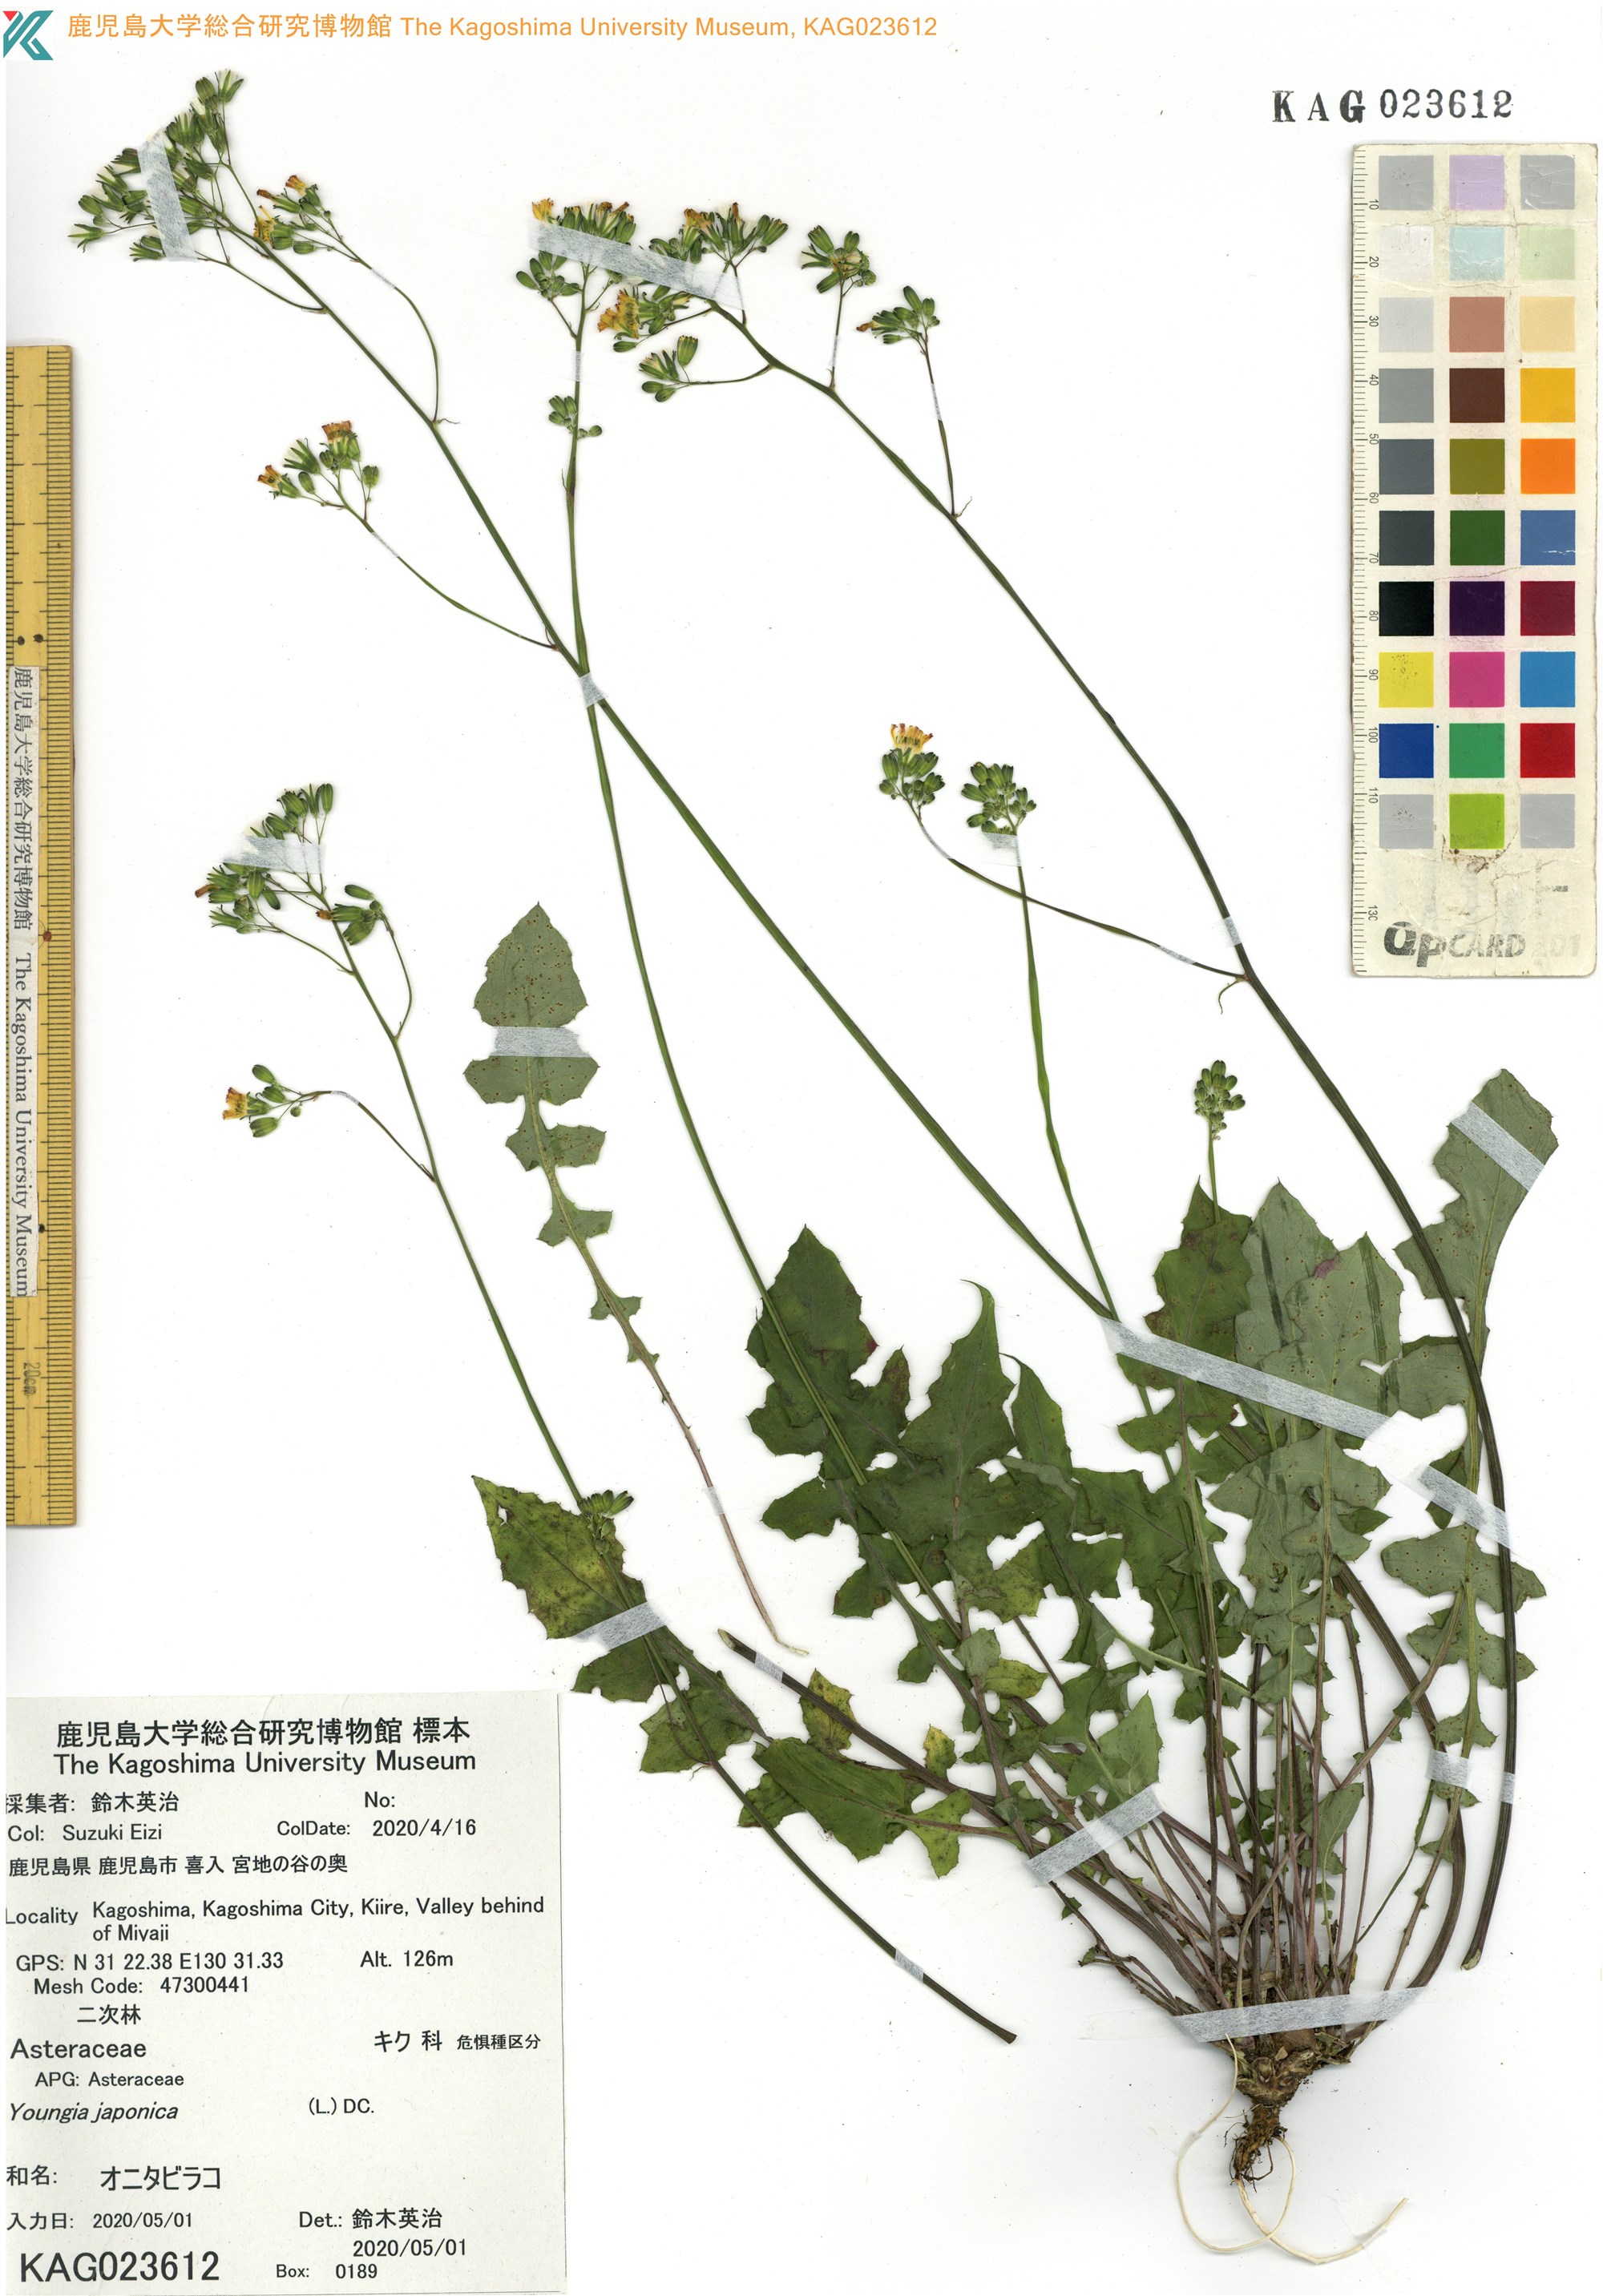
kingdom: Plantae
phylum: Tracheophyta
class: Magnoliopsida
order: Asterales
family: Asteraceae
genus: Youngia
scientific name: Youngia japonica
